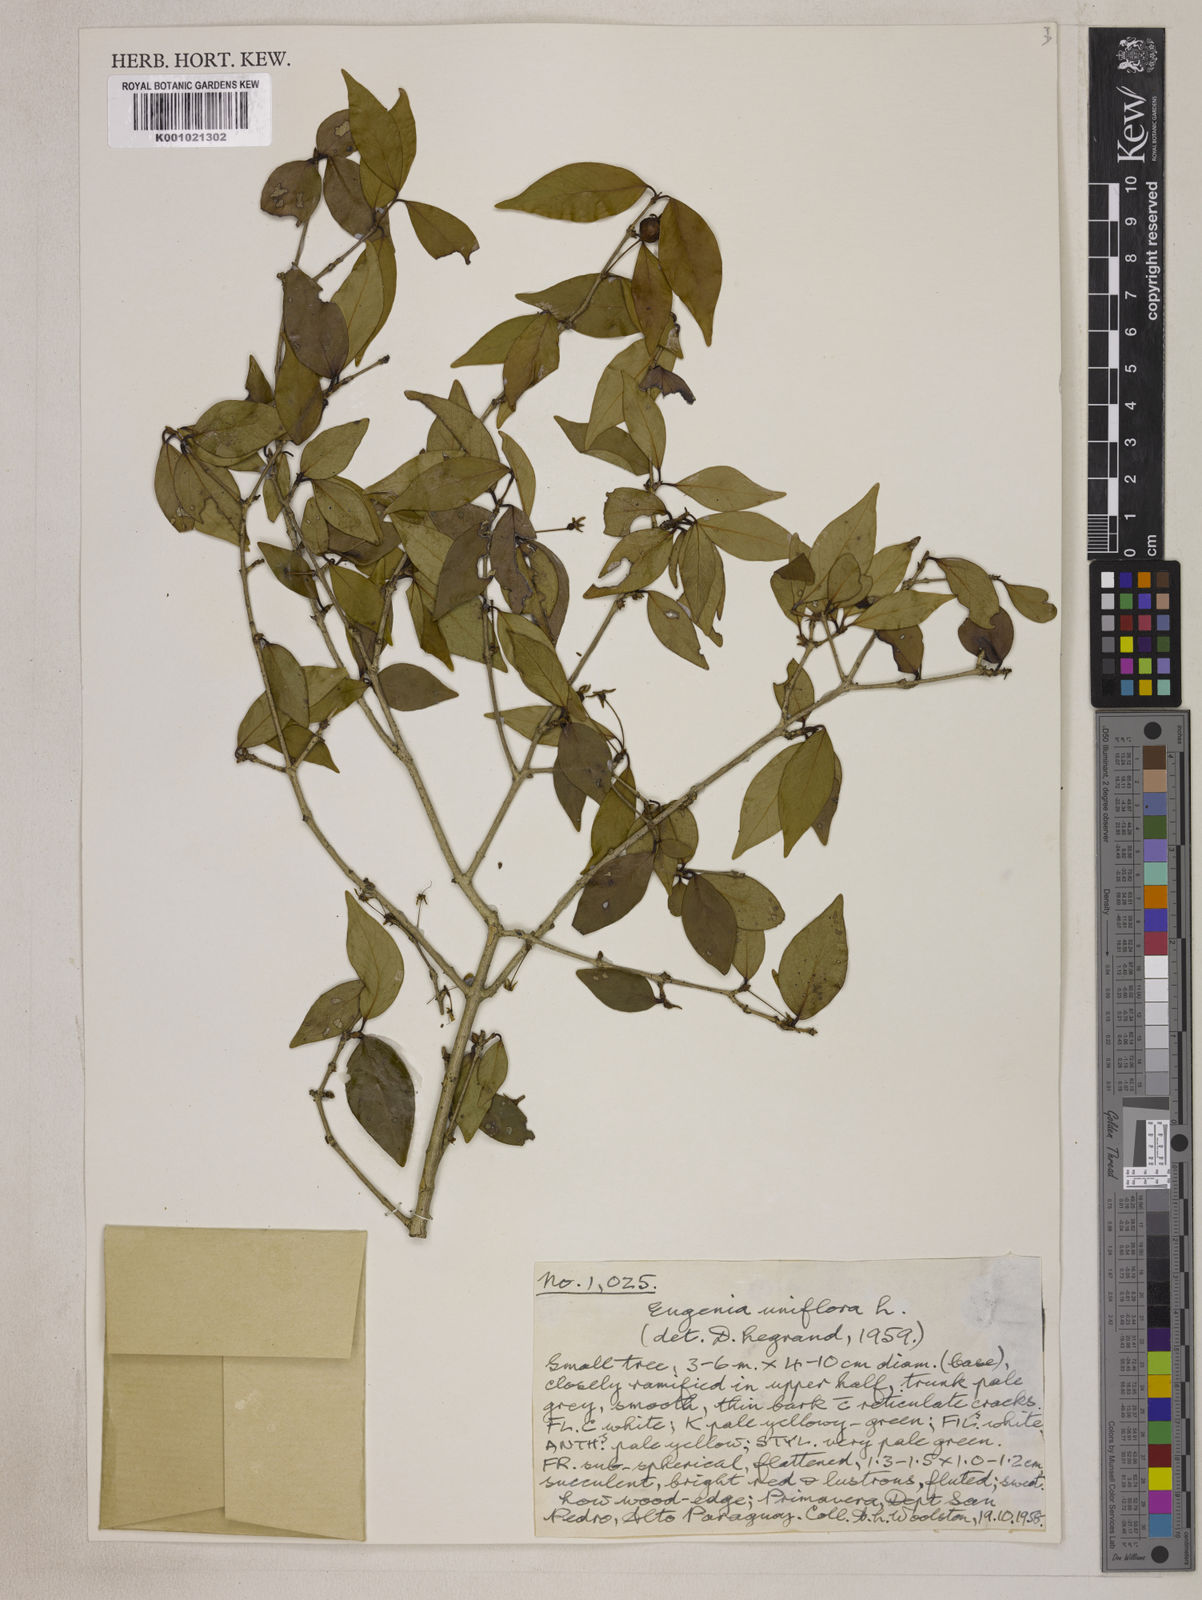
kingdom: Plantae
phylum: Tracheophyta
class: Magnoliopsida
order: Myrtales
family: Myrtaceae
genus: Eugenia
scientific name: Eugenia uniflora
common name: Surinam cherry
